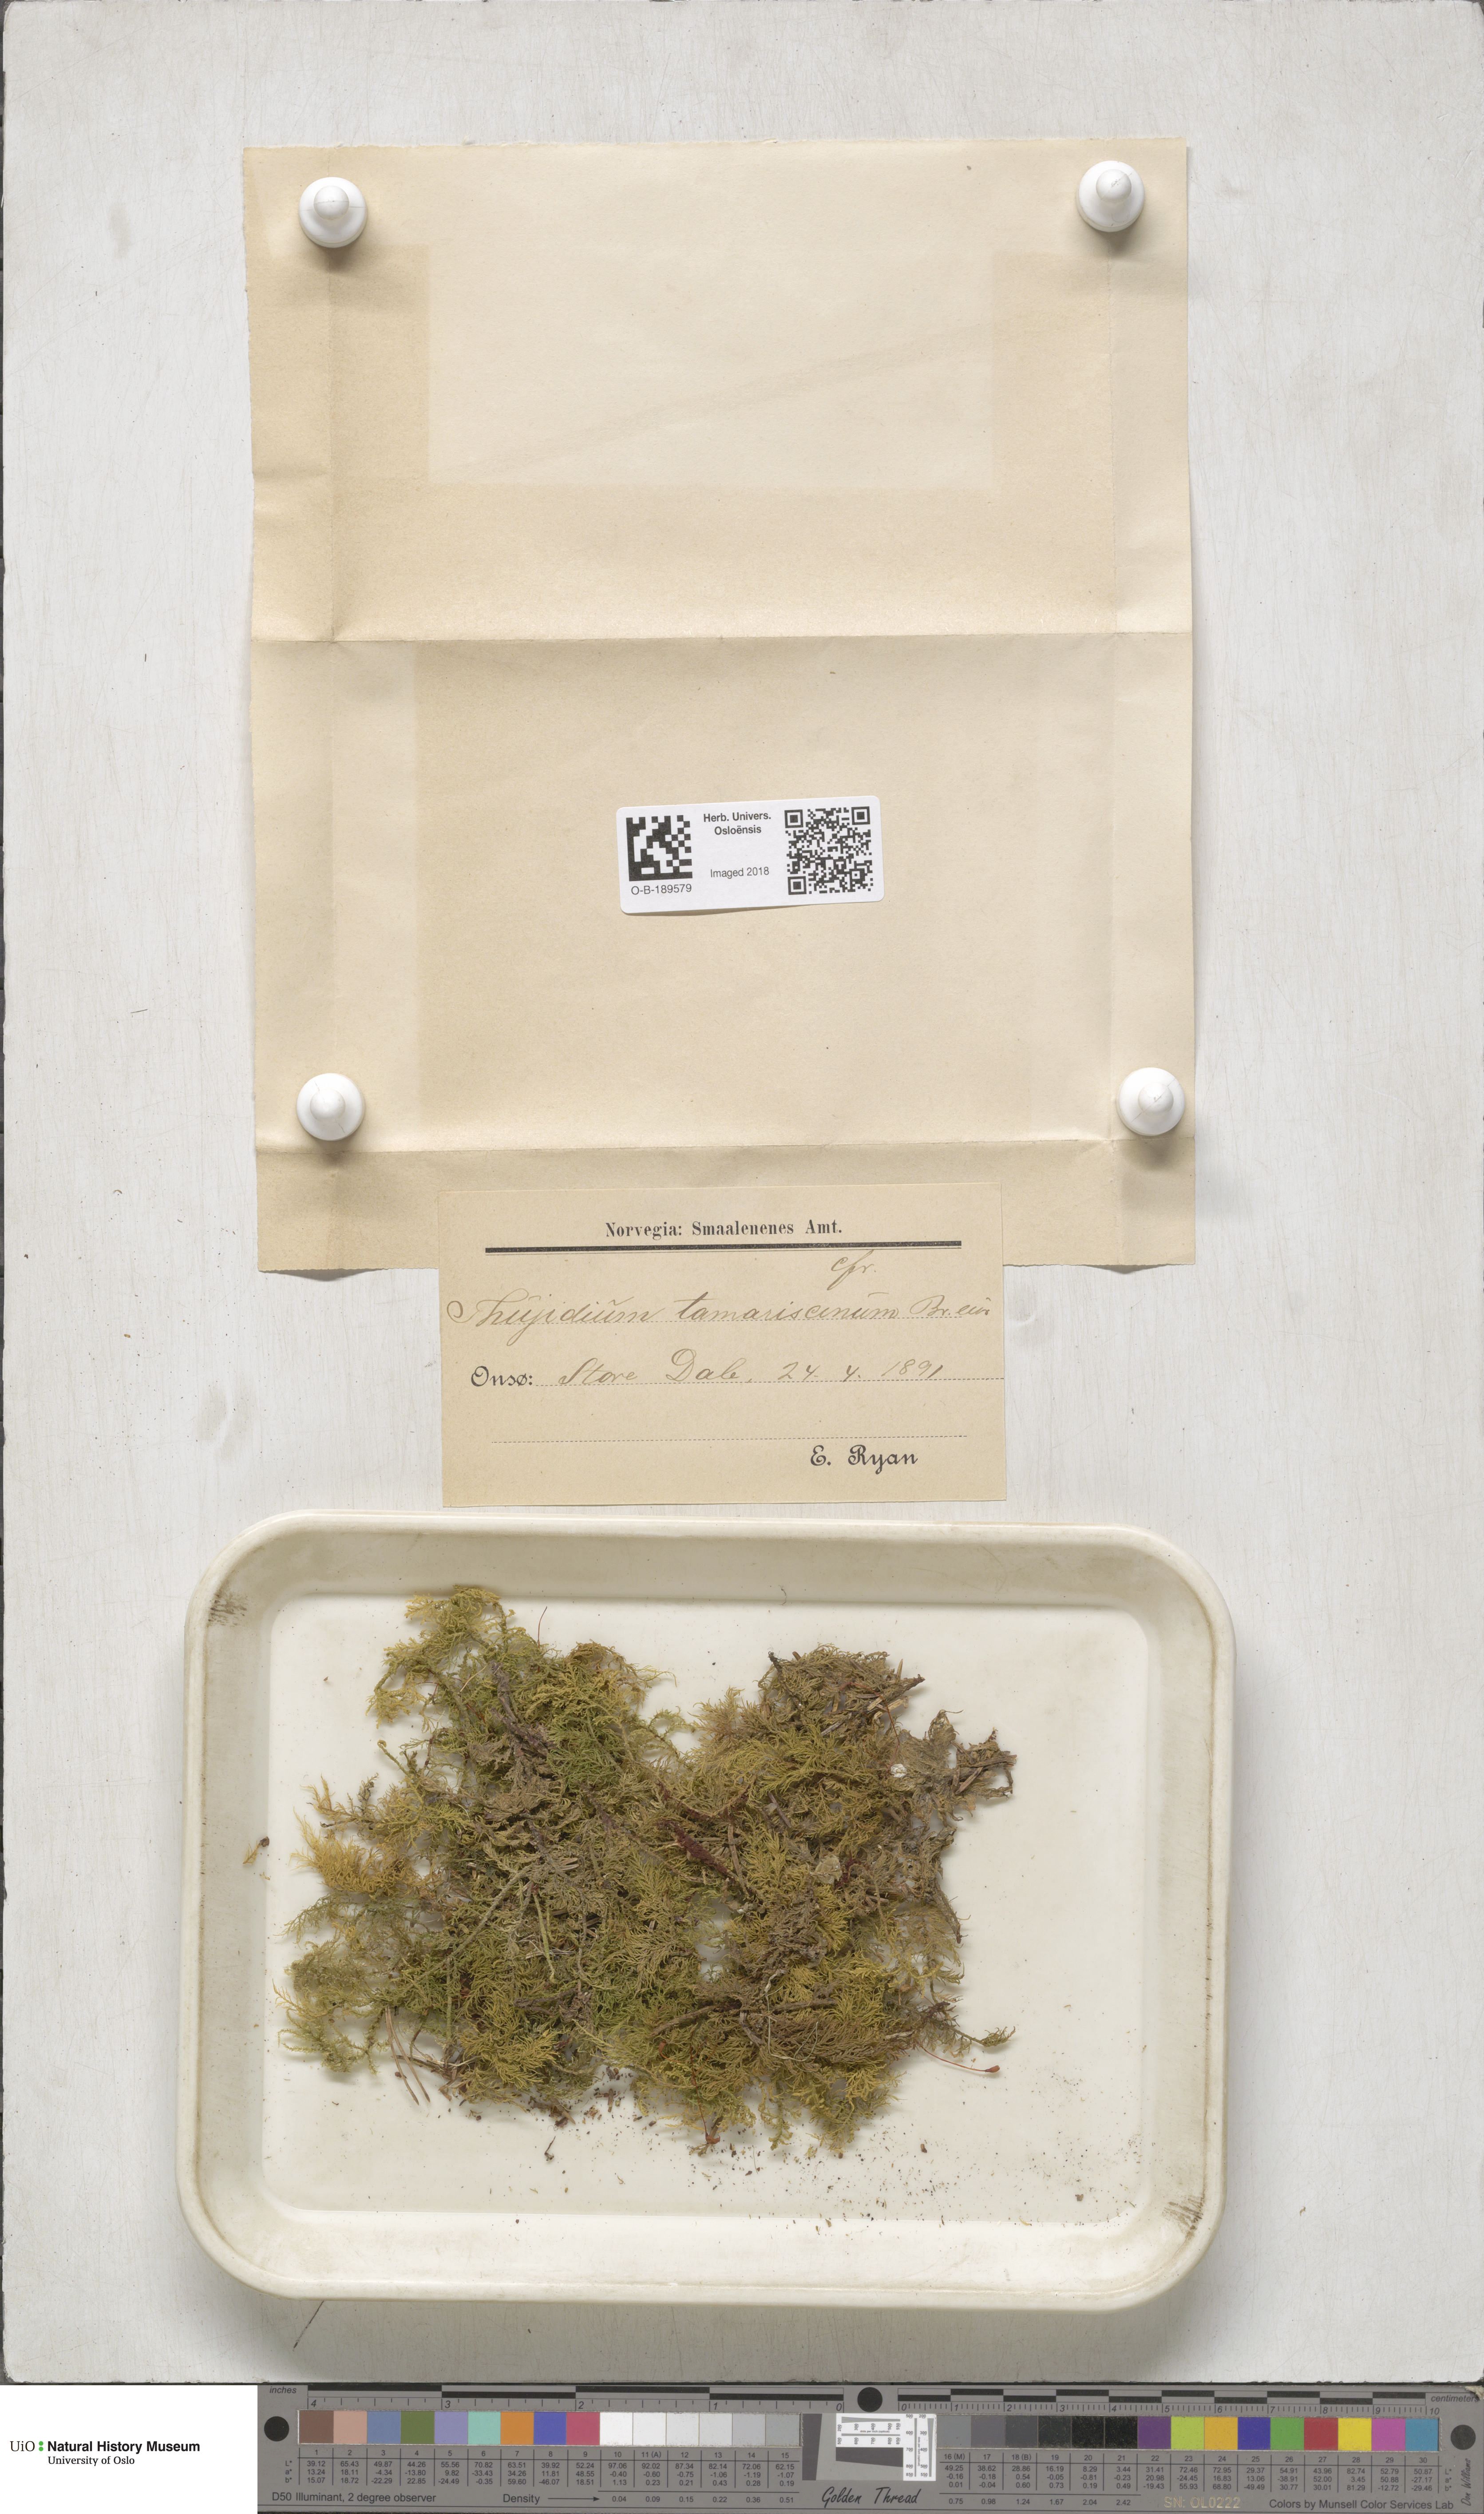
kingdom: Plantae
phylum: Bryophyta
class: Bryopsida
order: Hypnales
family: Thuidiaceae
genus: Thuidium
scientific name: Thuidium tamariscinum
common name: Common tamarisk-moss
